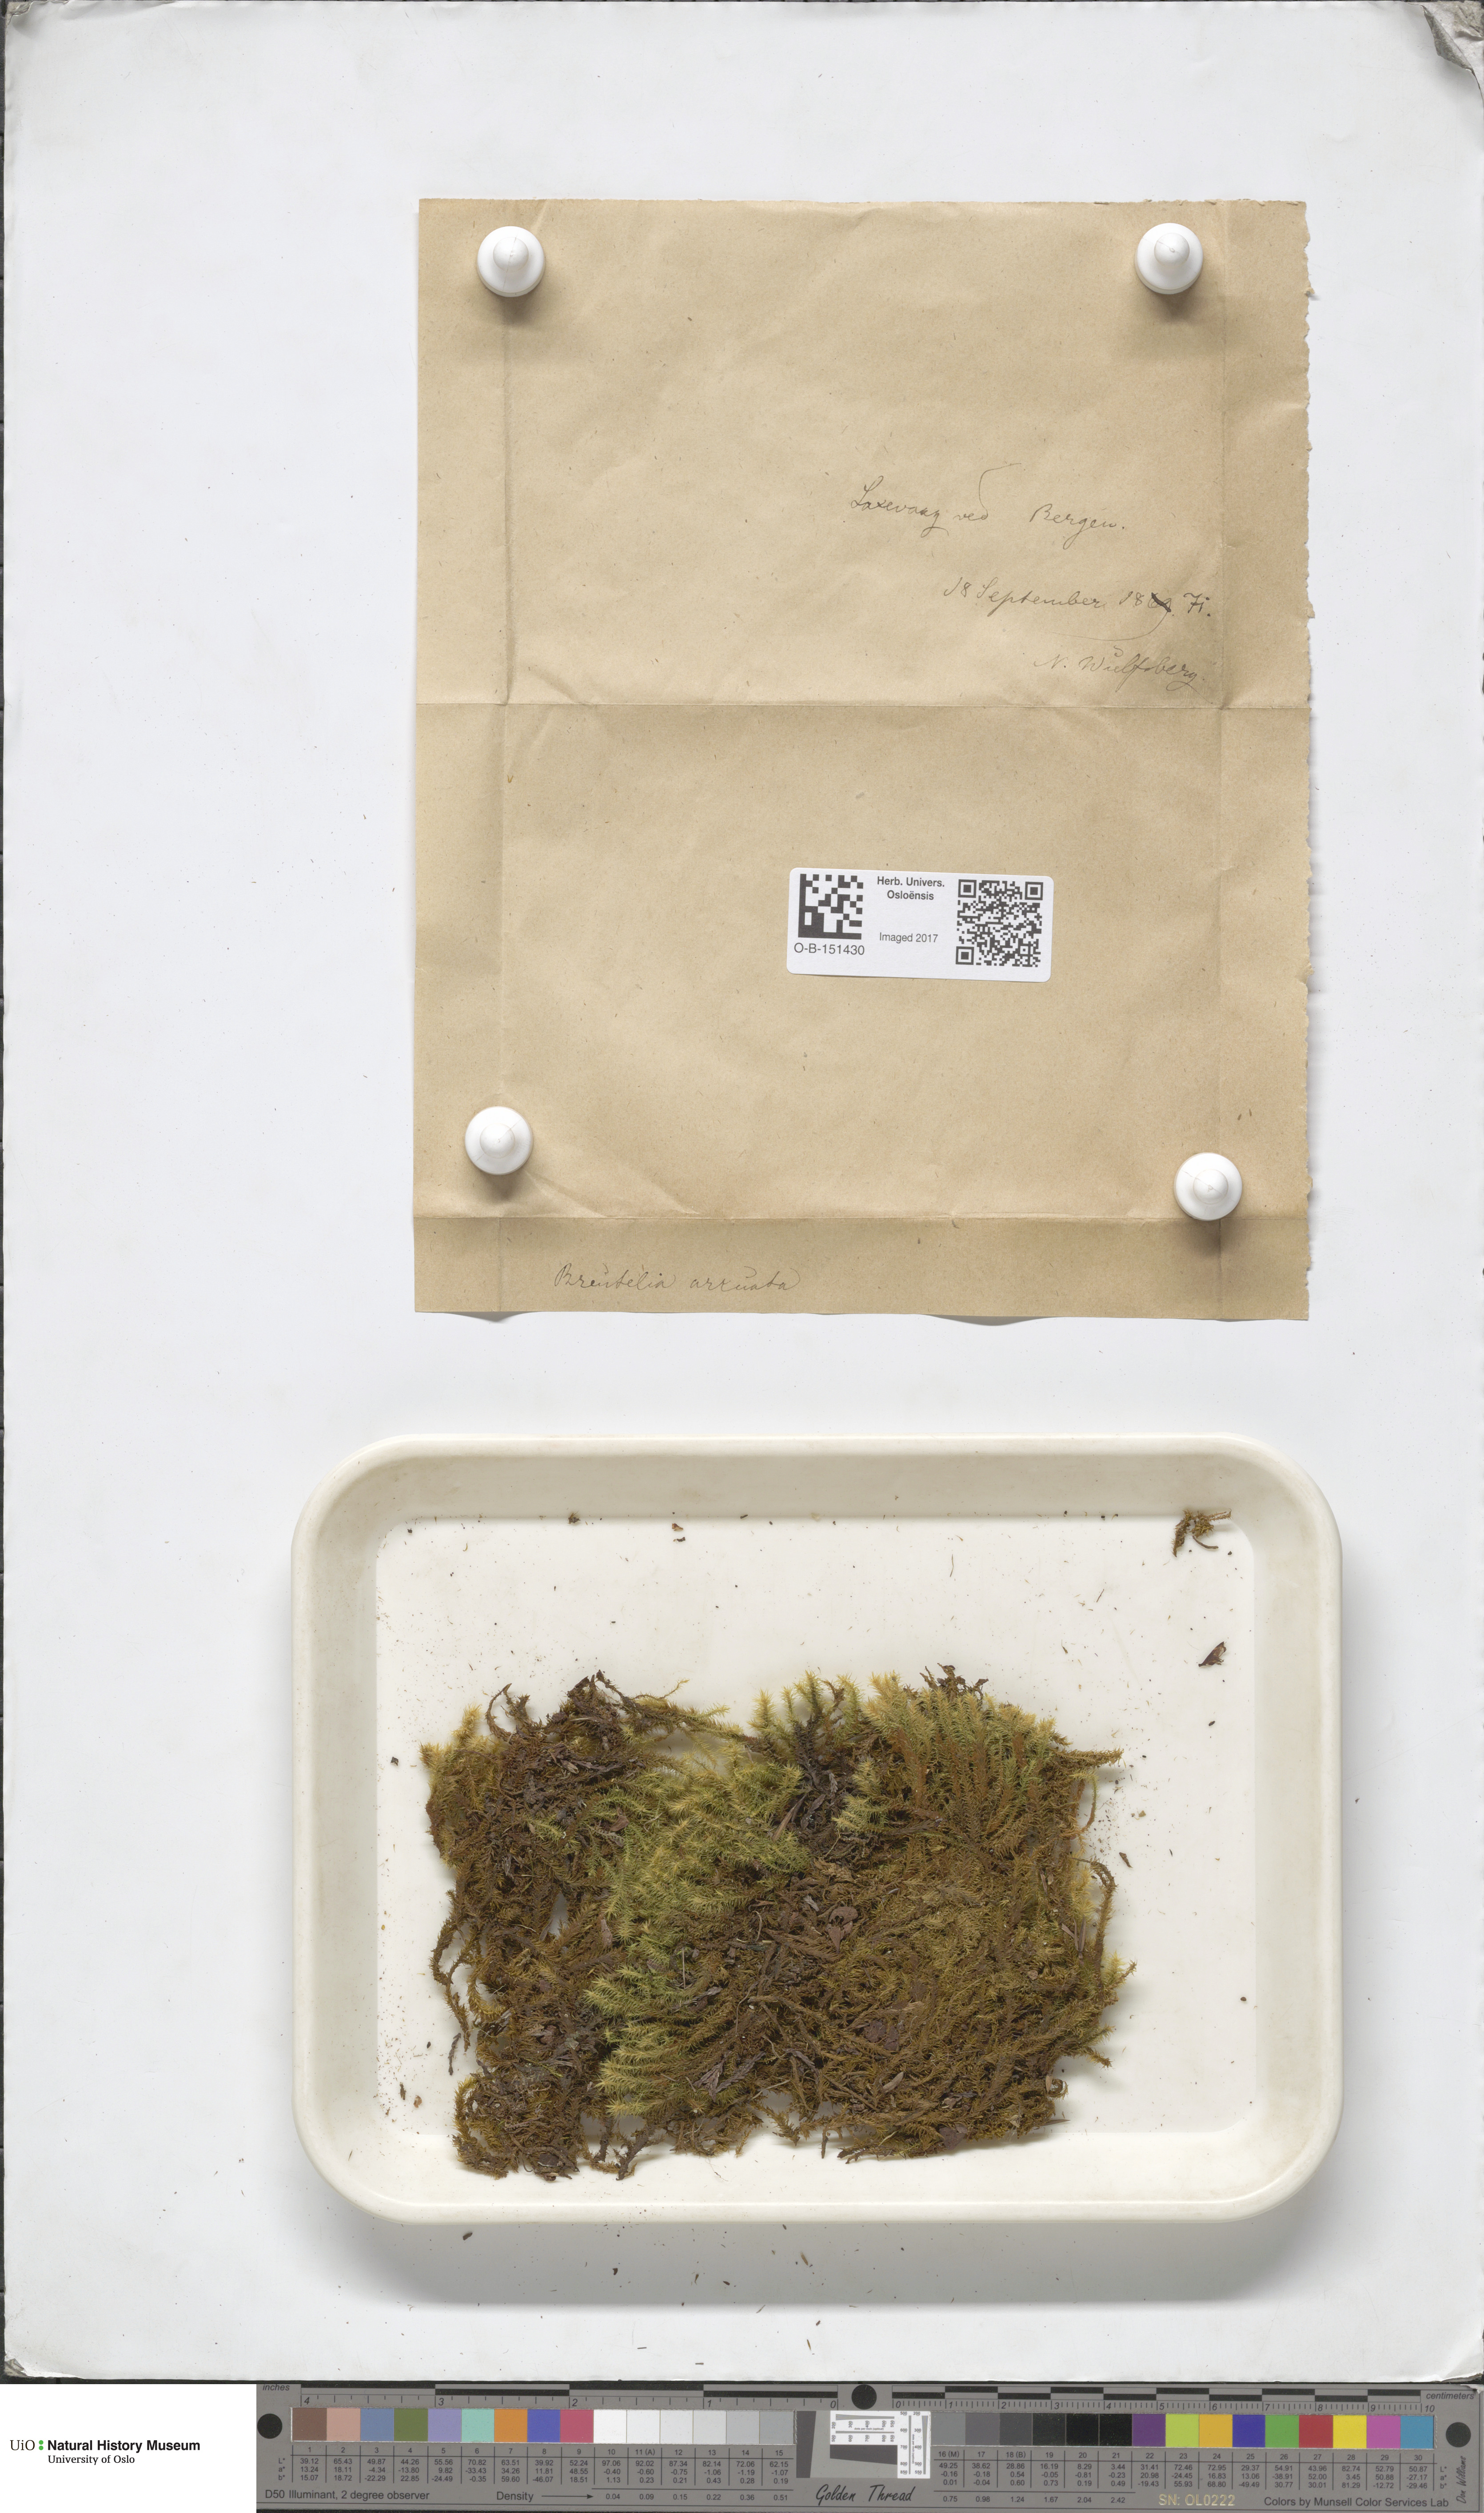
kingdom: Plantae
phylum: Bryophyta
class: Bryopsida
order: Bartramiales
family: Bartramiaceae
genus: Breutelia
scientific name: Breutelia chrysocoma
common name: Bottle-brush moss
